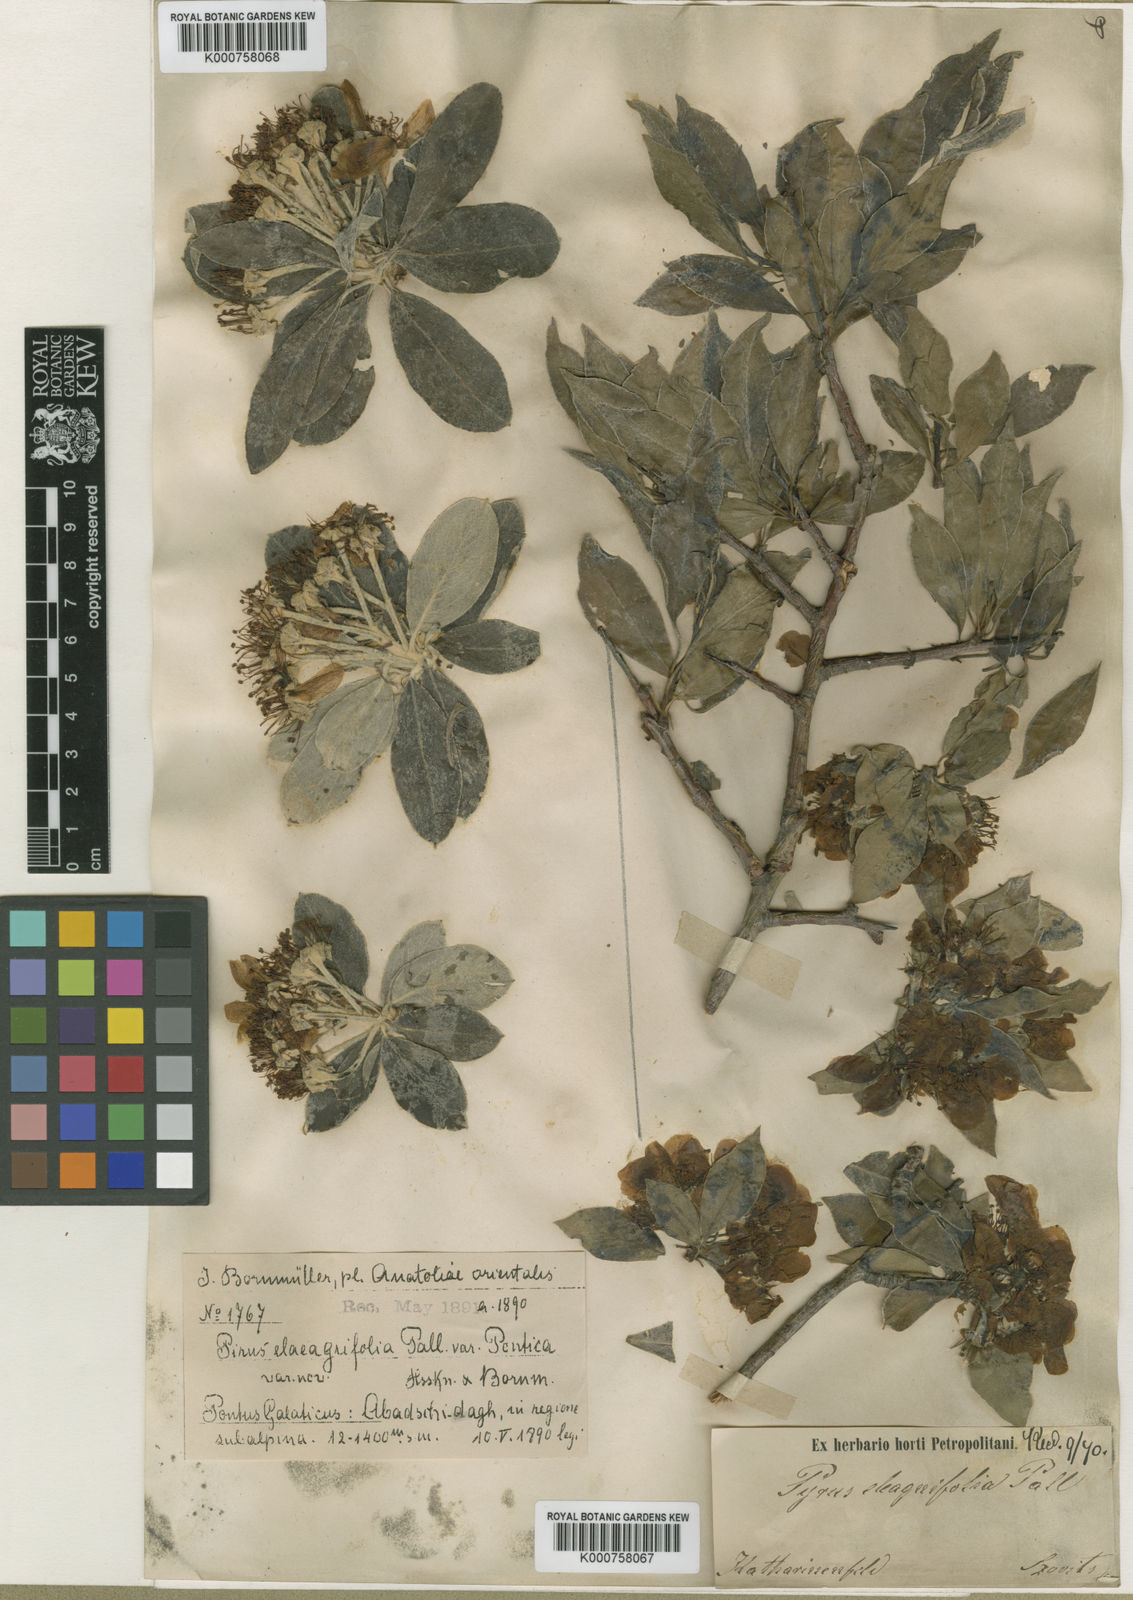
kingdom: Plantae
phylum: Tracheophyta
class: Magnoliopsida
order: Rosales
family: Rosaceae
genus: Pyrus
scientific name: Pyrus
